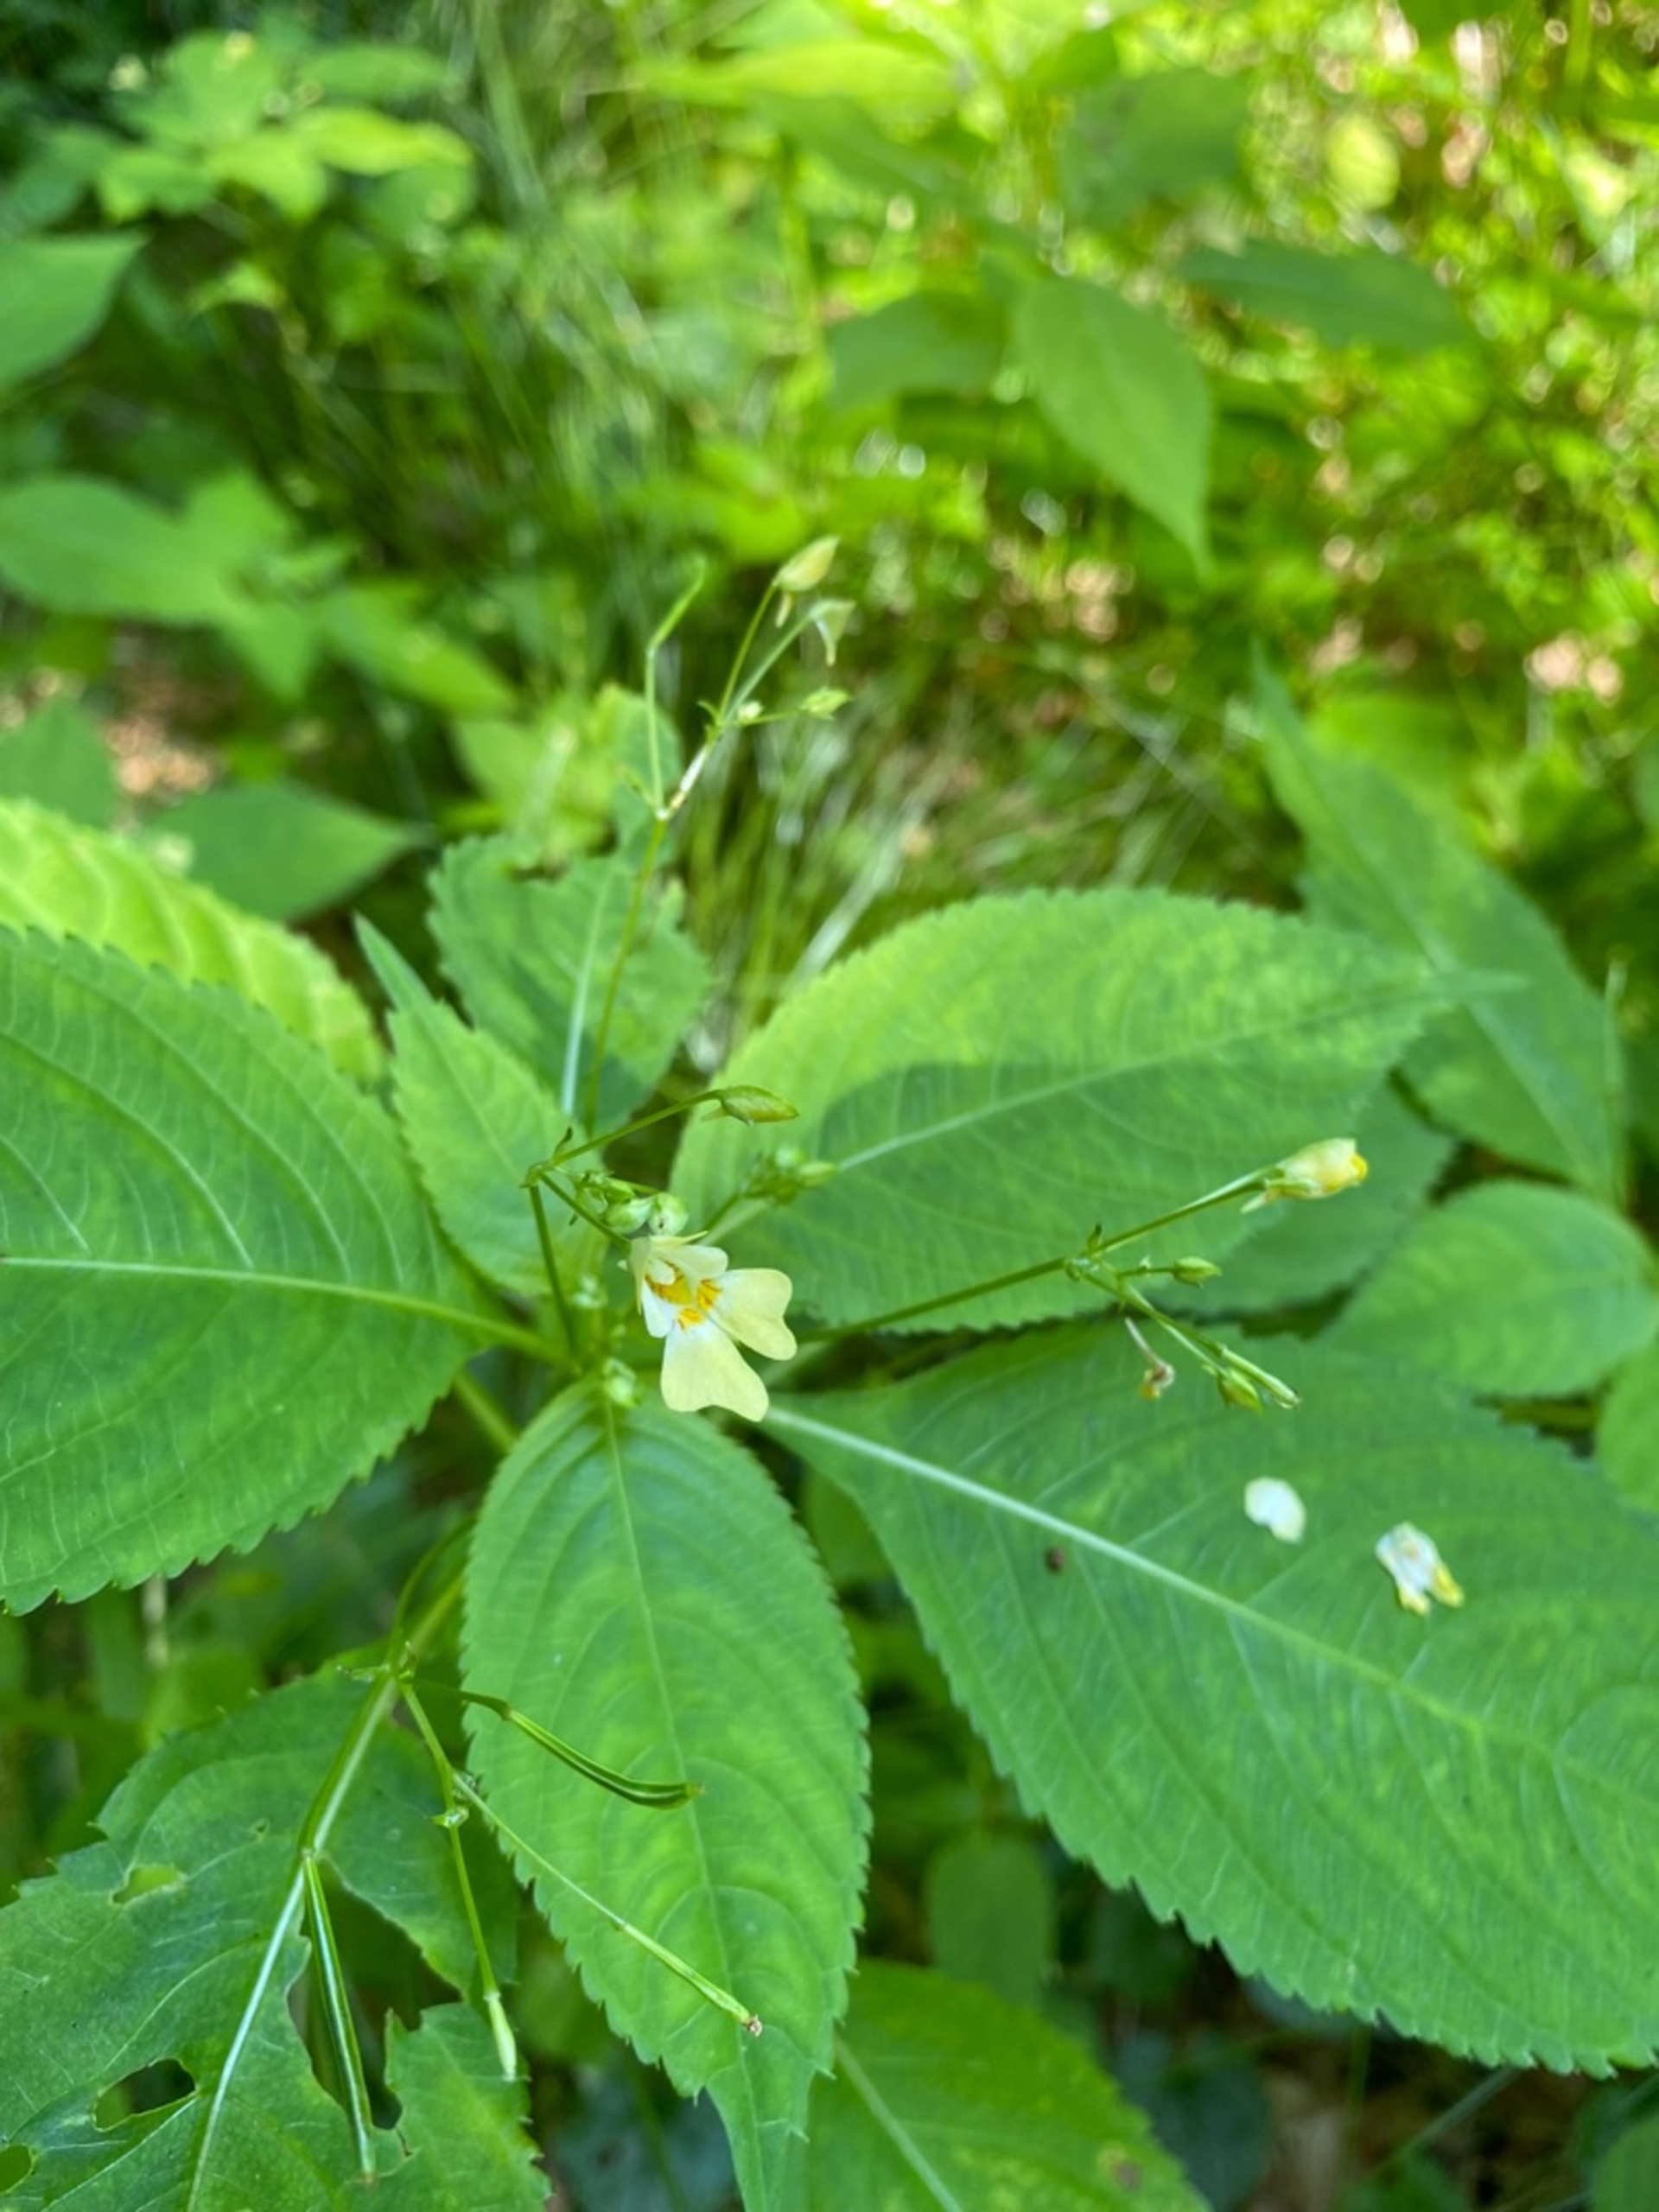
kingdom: Plantae
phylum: Tracheophyta
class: Magnoliopsida
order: Ericales
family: Balsaminaceae
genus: Impatiens
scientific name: Impatiens parviflora
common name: Småblomstret balsamin
